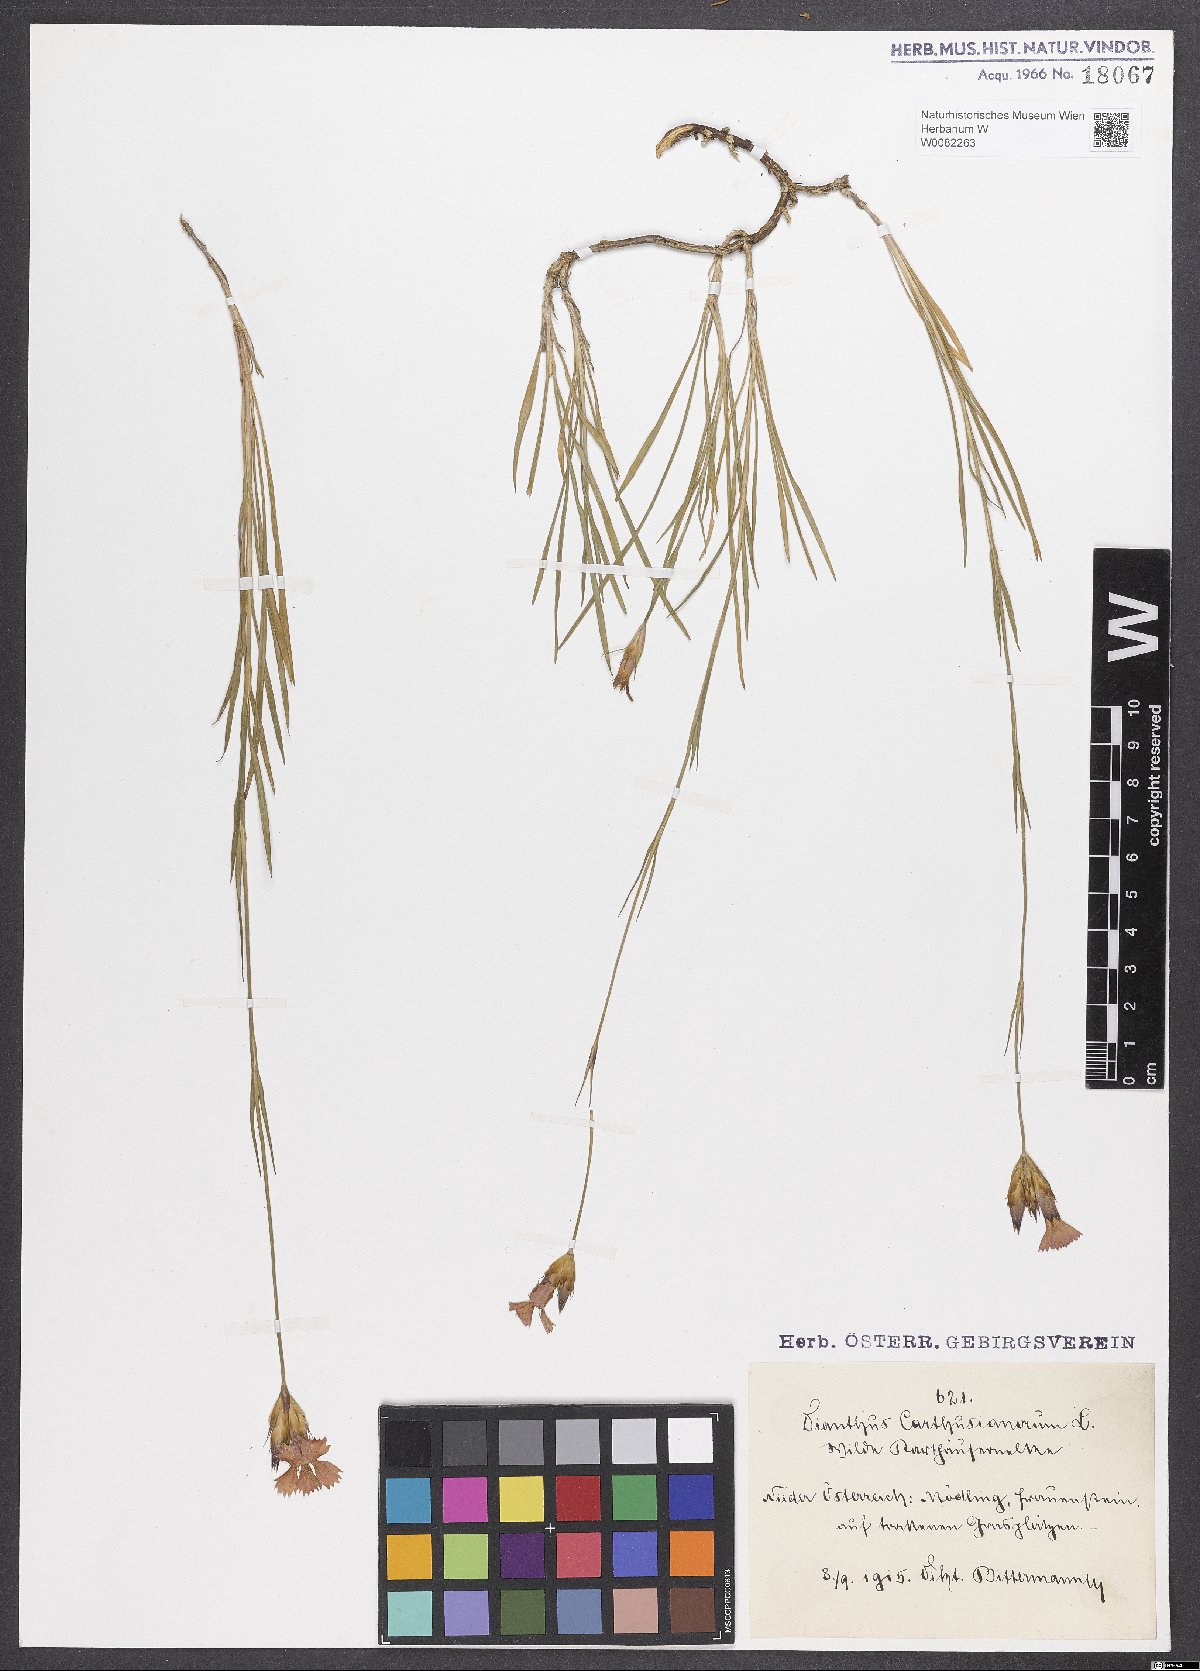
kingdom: Plantae
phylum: Tracheophyta
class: Magnoliopsida
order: Caryophyllales
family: Caryophyllaceae
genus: Dianthus
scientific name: Dianthus carthusianorum
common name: Carthusian pink
